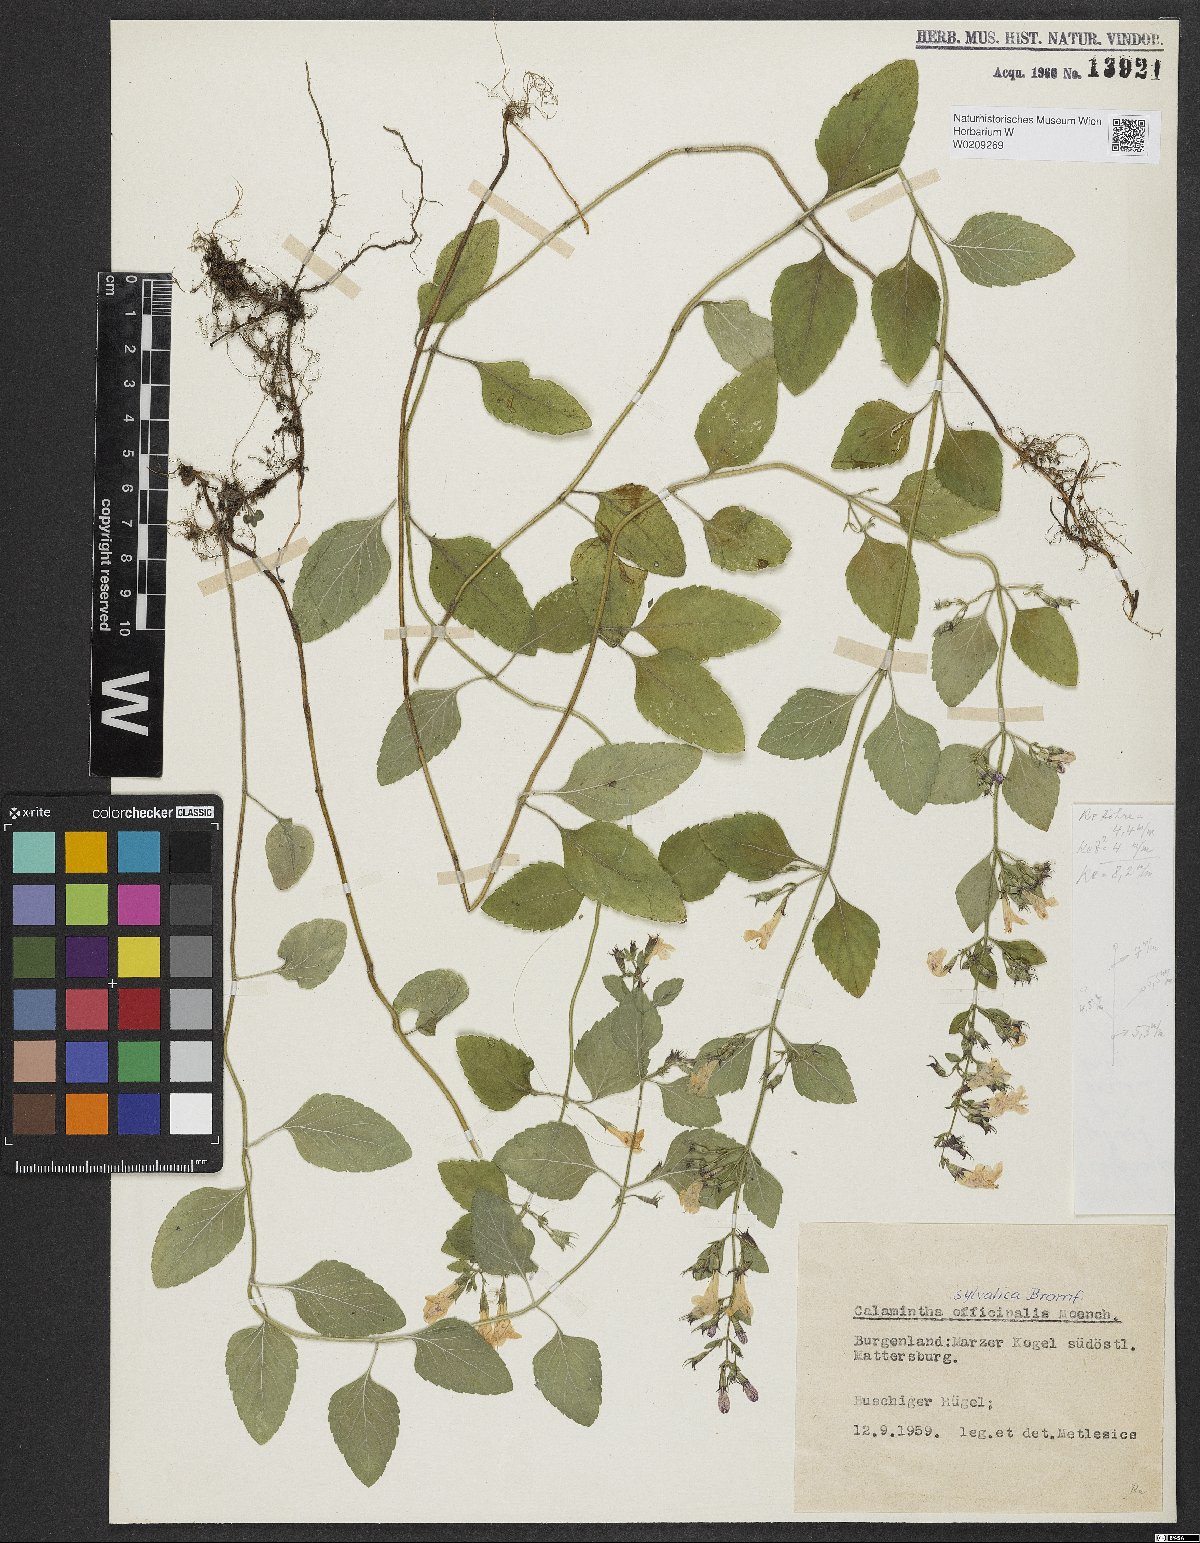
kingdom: Plantae
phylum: Tracheophyta
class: Magnoliopsida
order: Lamiales
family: Lamiaceae
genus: Clinopodium
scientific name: Clinopodium menthifolium
